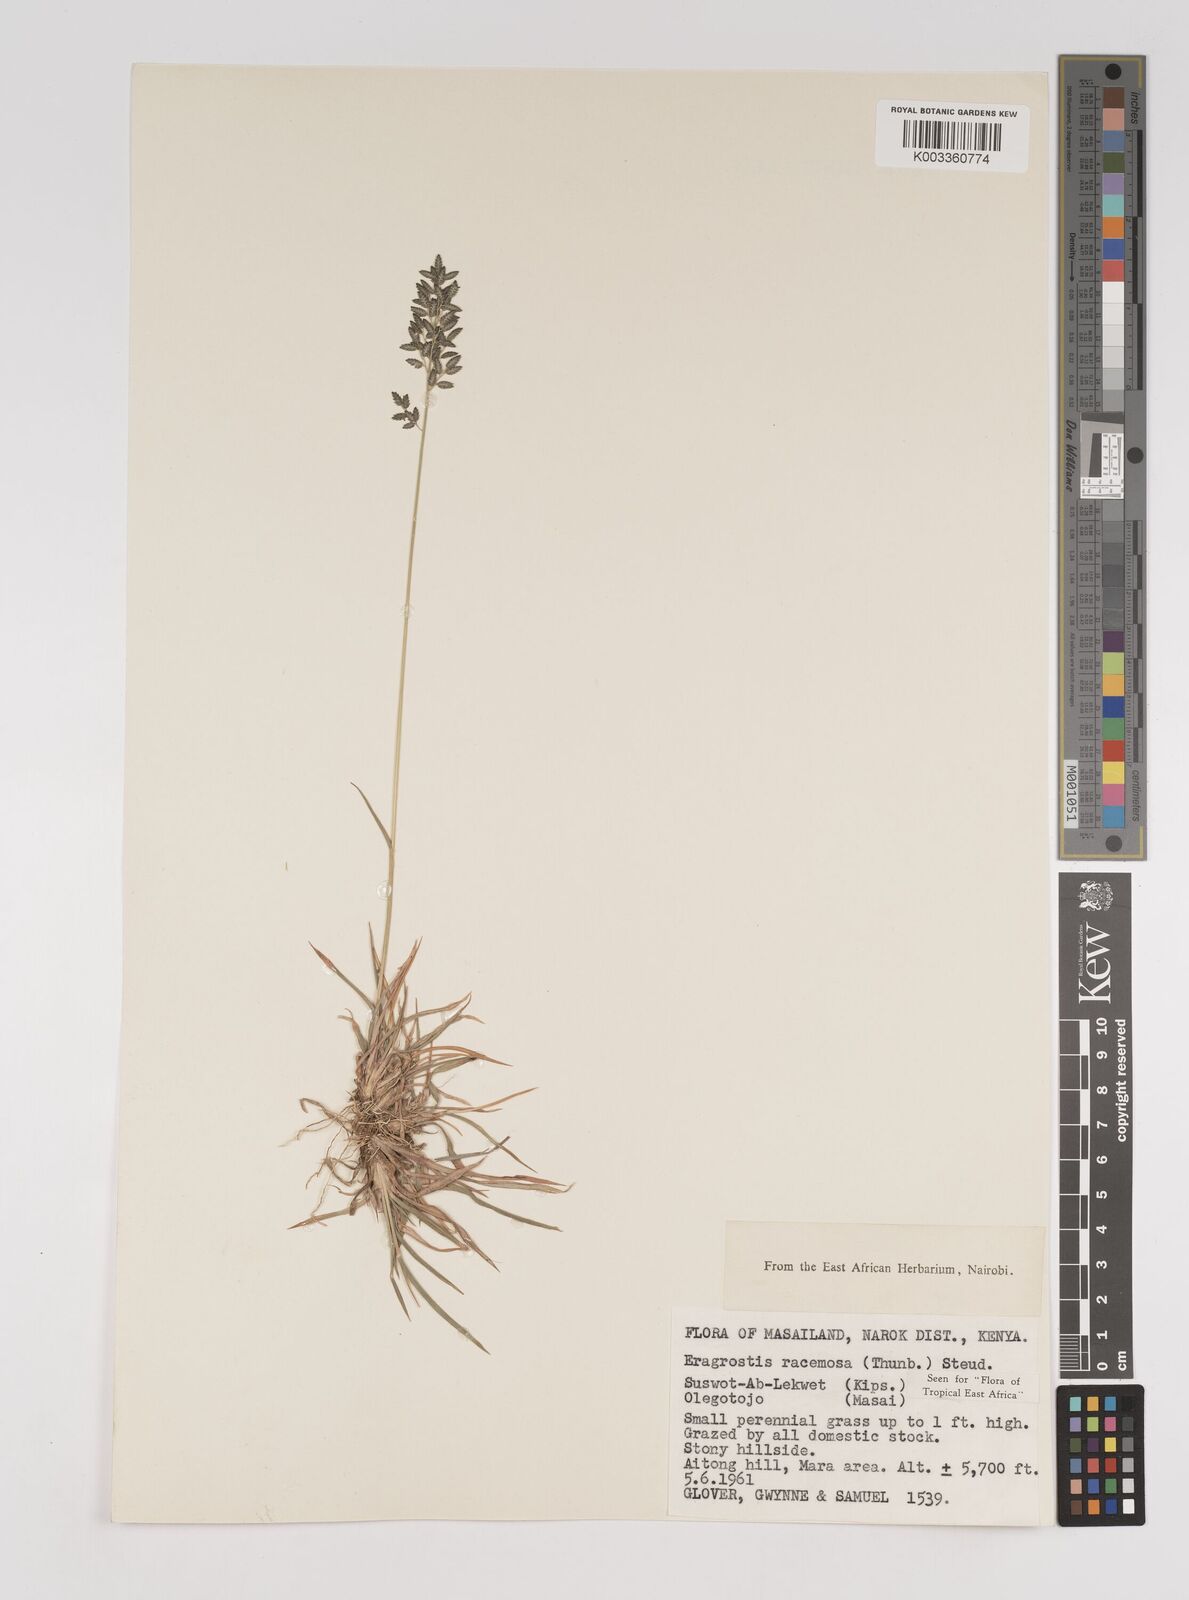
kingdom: Plantae
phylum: Tracheophyta
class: Liliopsida
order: Poales
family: Poaceae
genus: Eragrostis
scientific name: Eragrostis racemosa
